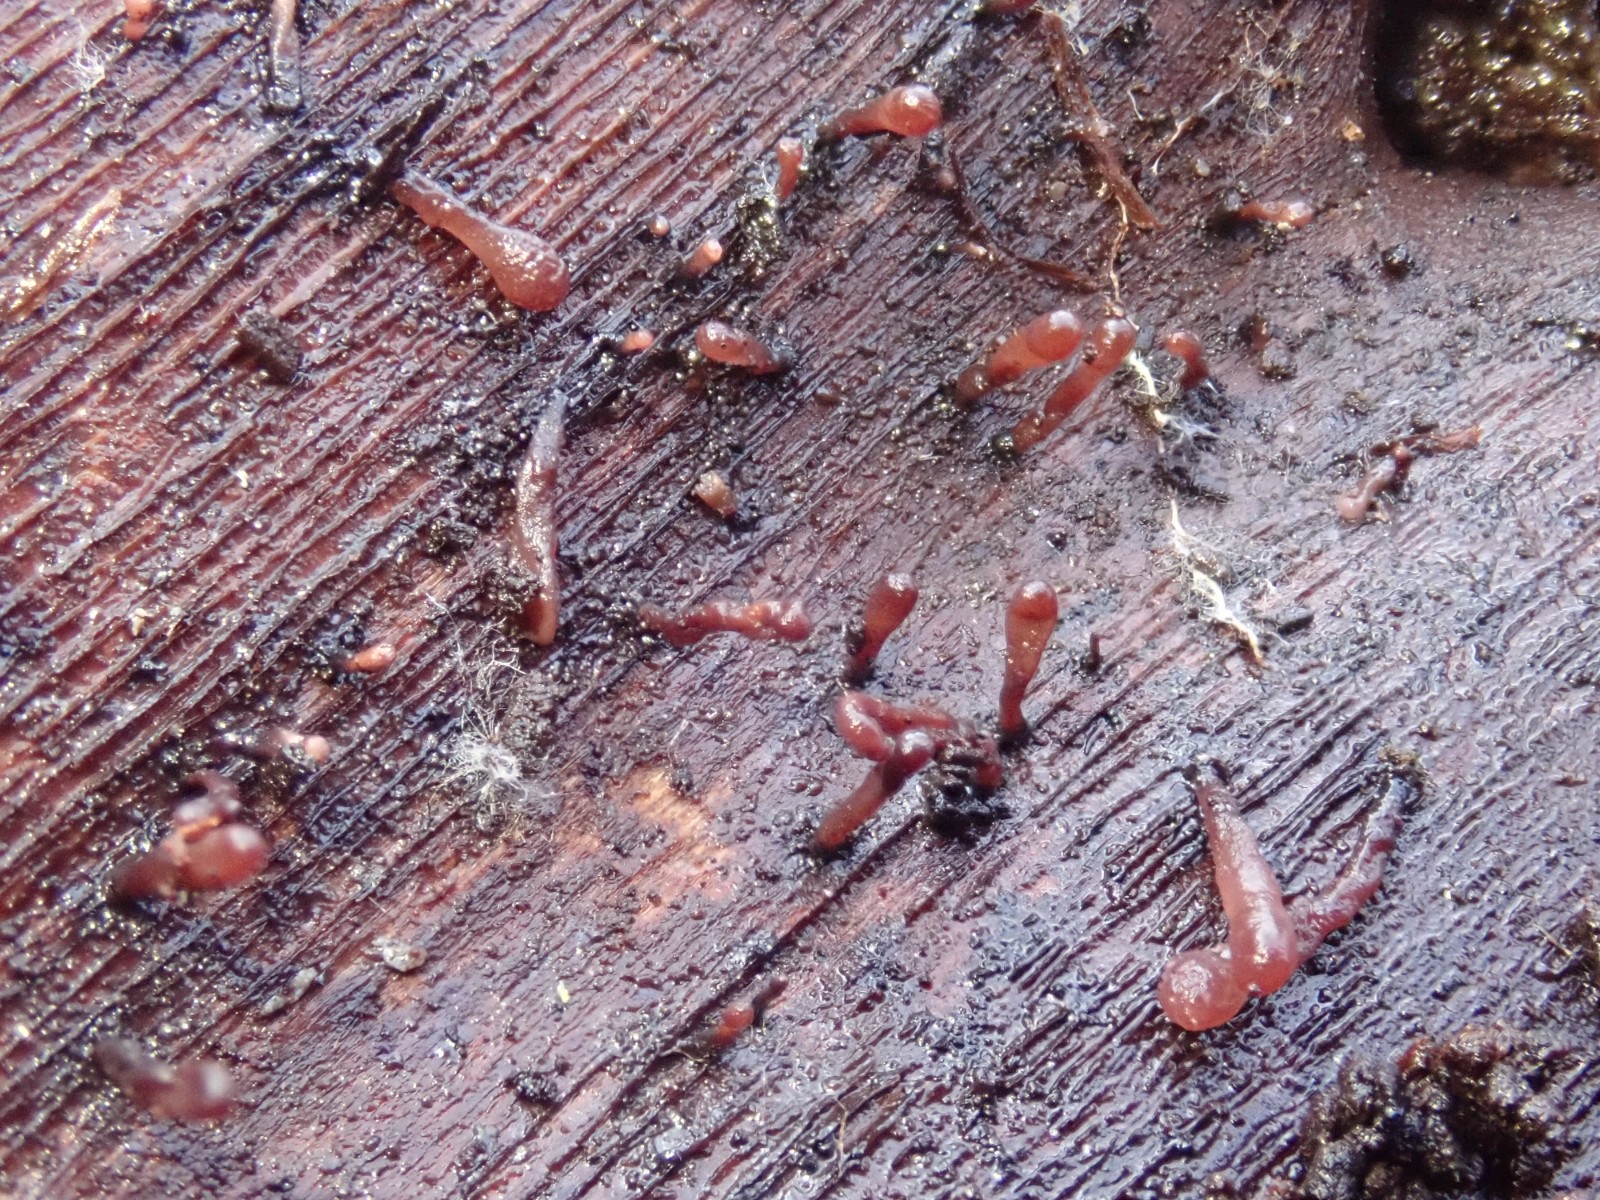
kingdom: Fungi
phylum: Ascomycota
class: Leotiomycetes
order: Helotiales
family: Gelatinodiscaceae
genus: Ascocoryne
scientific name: Ascocoryne albida
